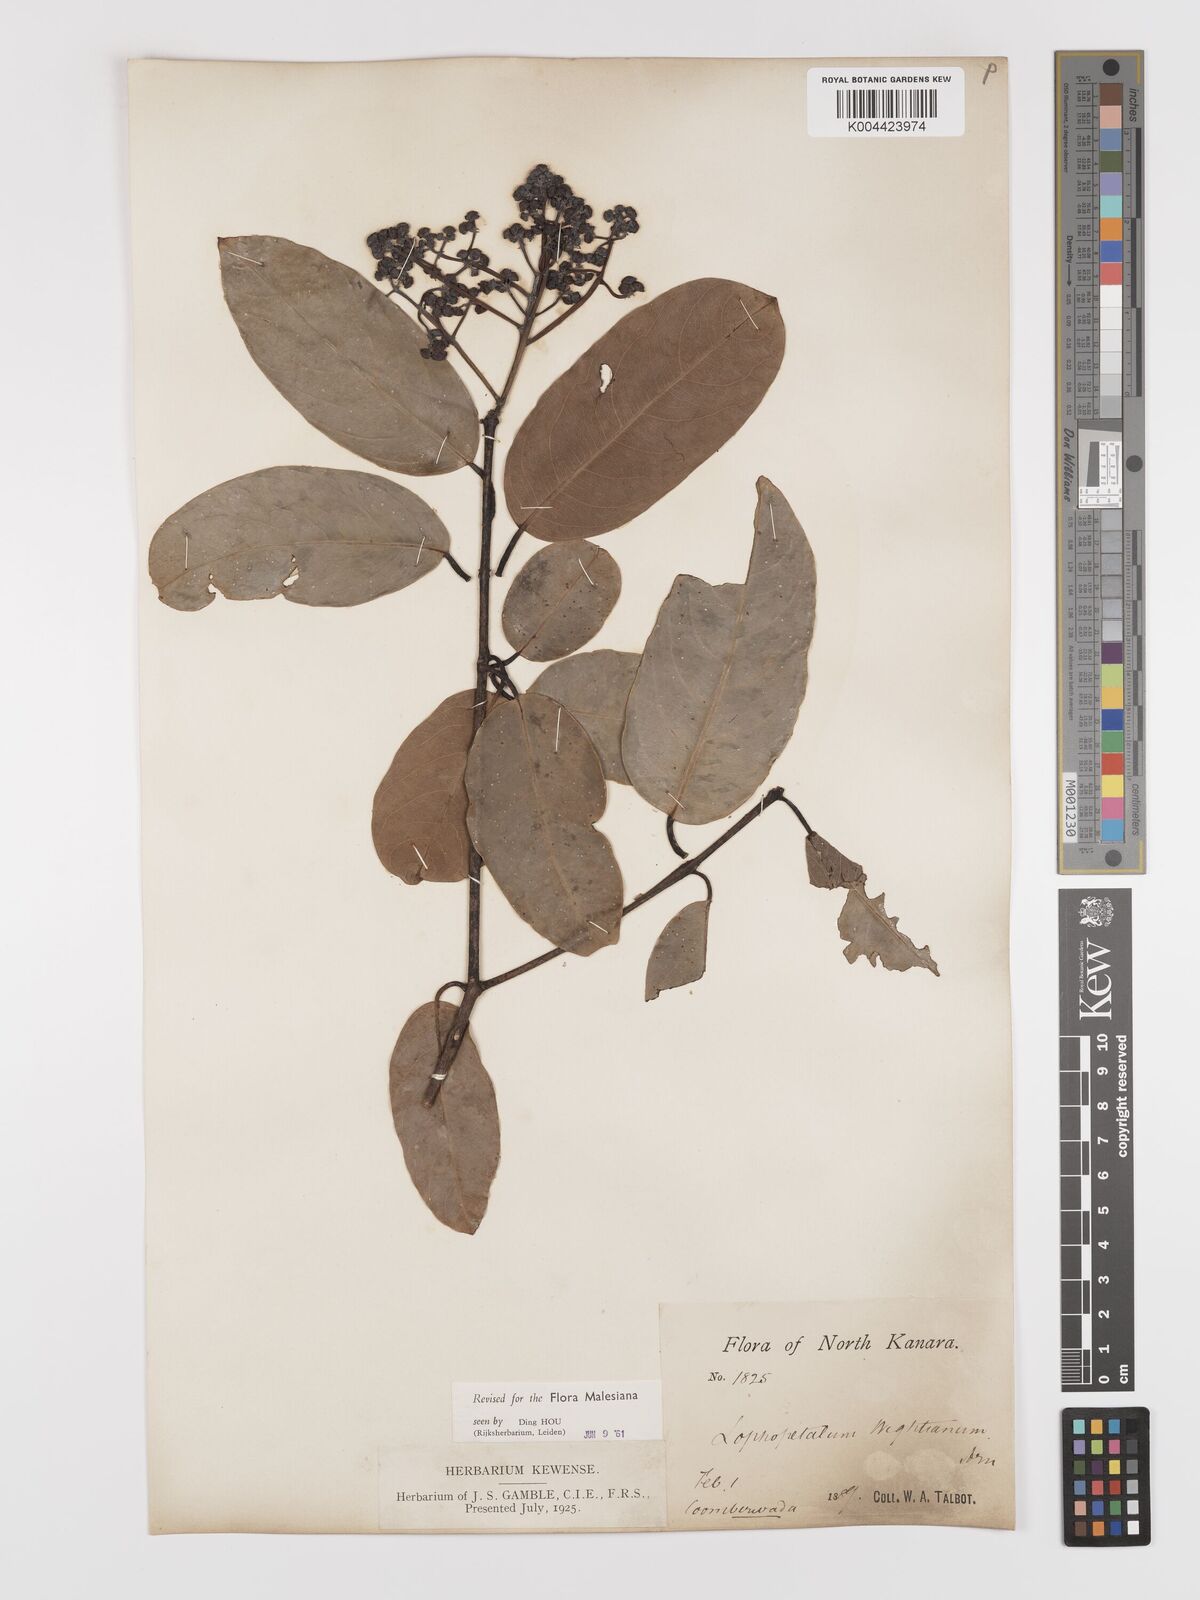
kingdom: Plantae
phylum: Tracheophyta
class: Magnoliopsida
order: Celastrales
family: Celastraceae
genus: Lophopetalum
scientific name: Lophopetalum wightianum
